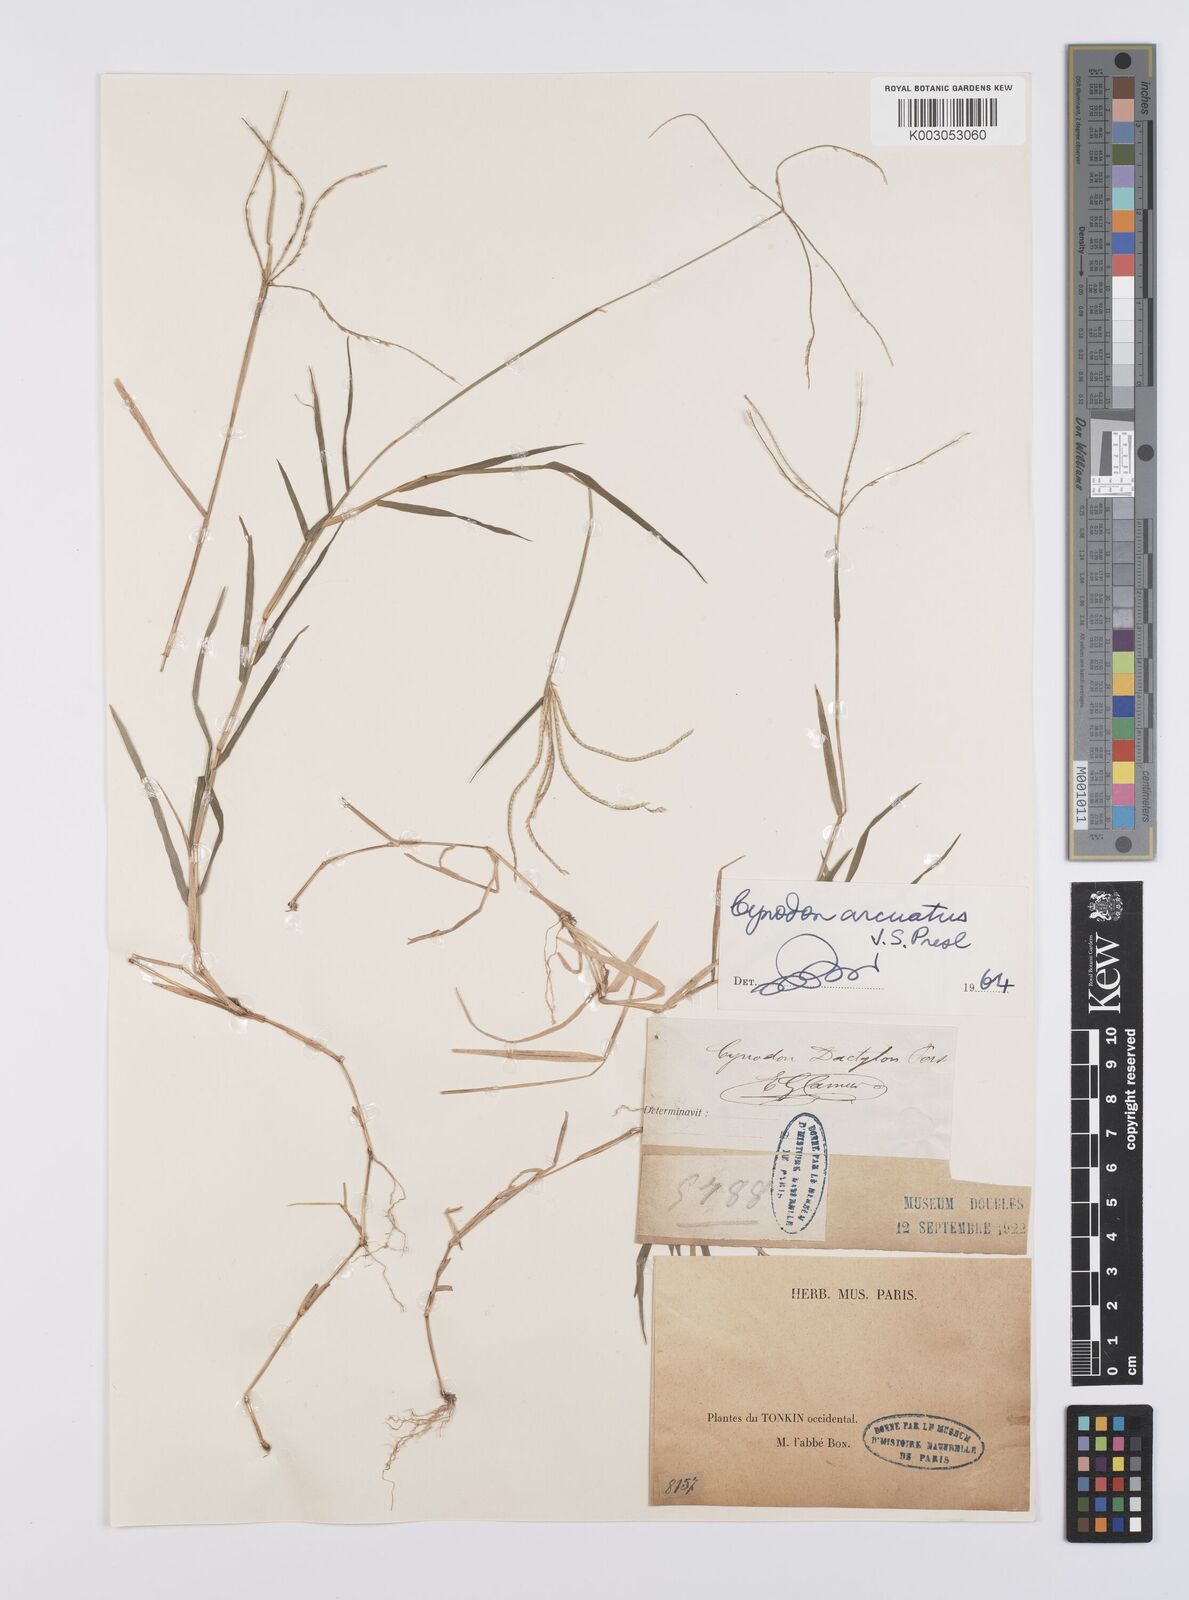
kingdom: Plantae
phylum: Tracheophyta
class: Liliopsida
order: Poales
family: Poaceae
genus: Cynodon
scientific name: Cynodon radiatus
